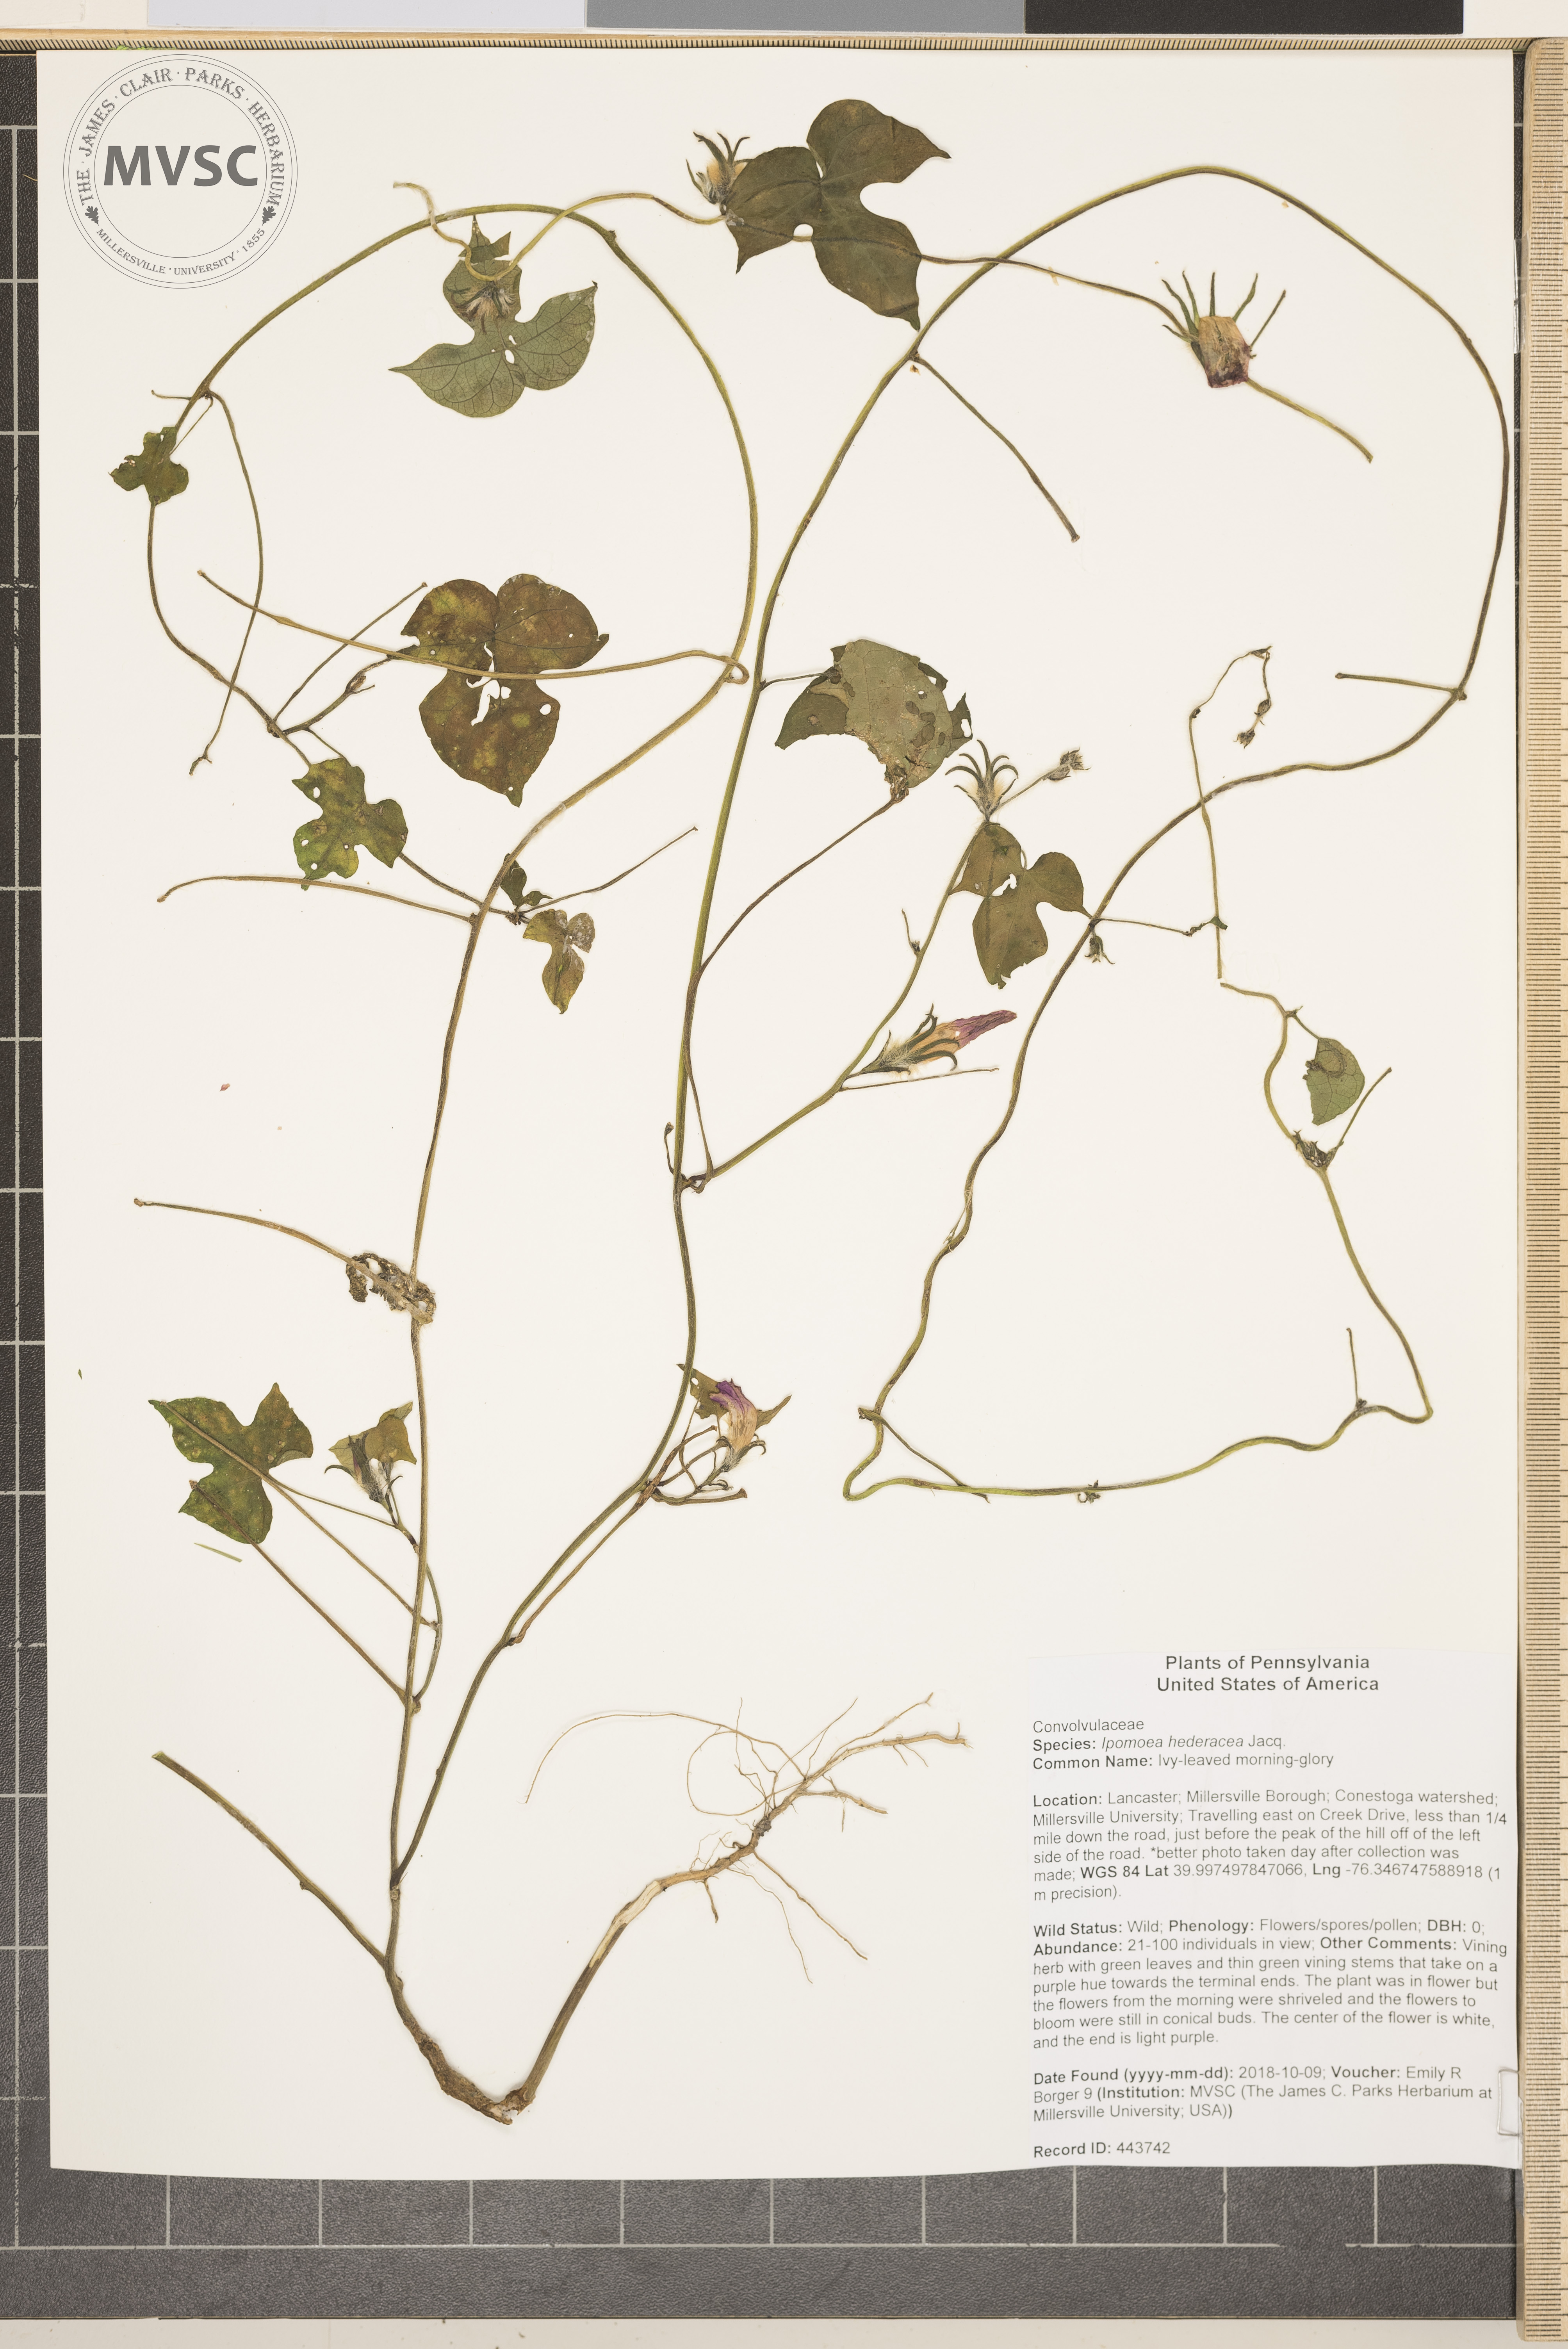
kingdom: Plantae
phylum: Tracheophyta
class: Magnoliopsida
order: Solanales
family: Convolvulaceae
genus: Ipomoea
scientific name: Ipomoea hederacea
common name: Ivy-leaved morning-glory
